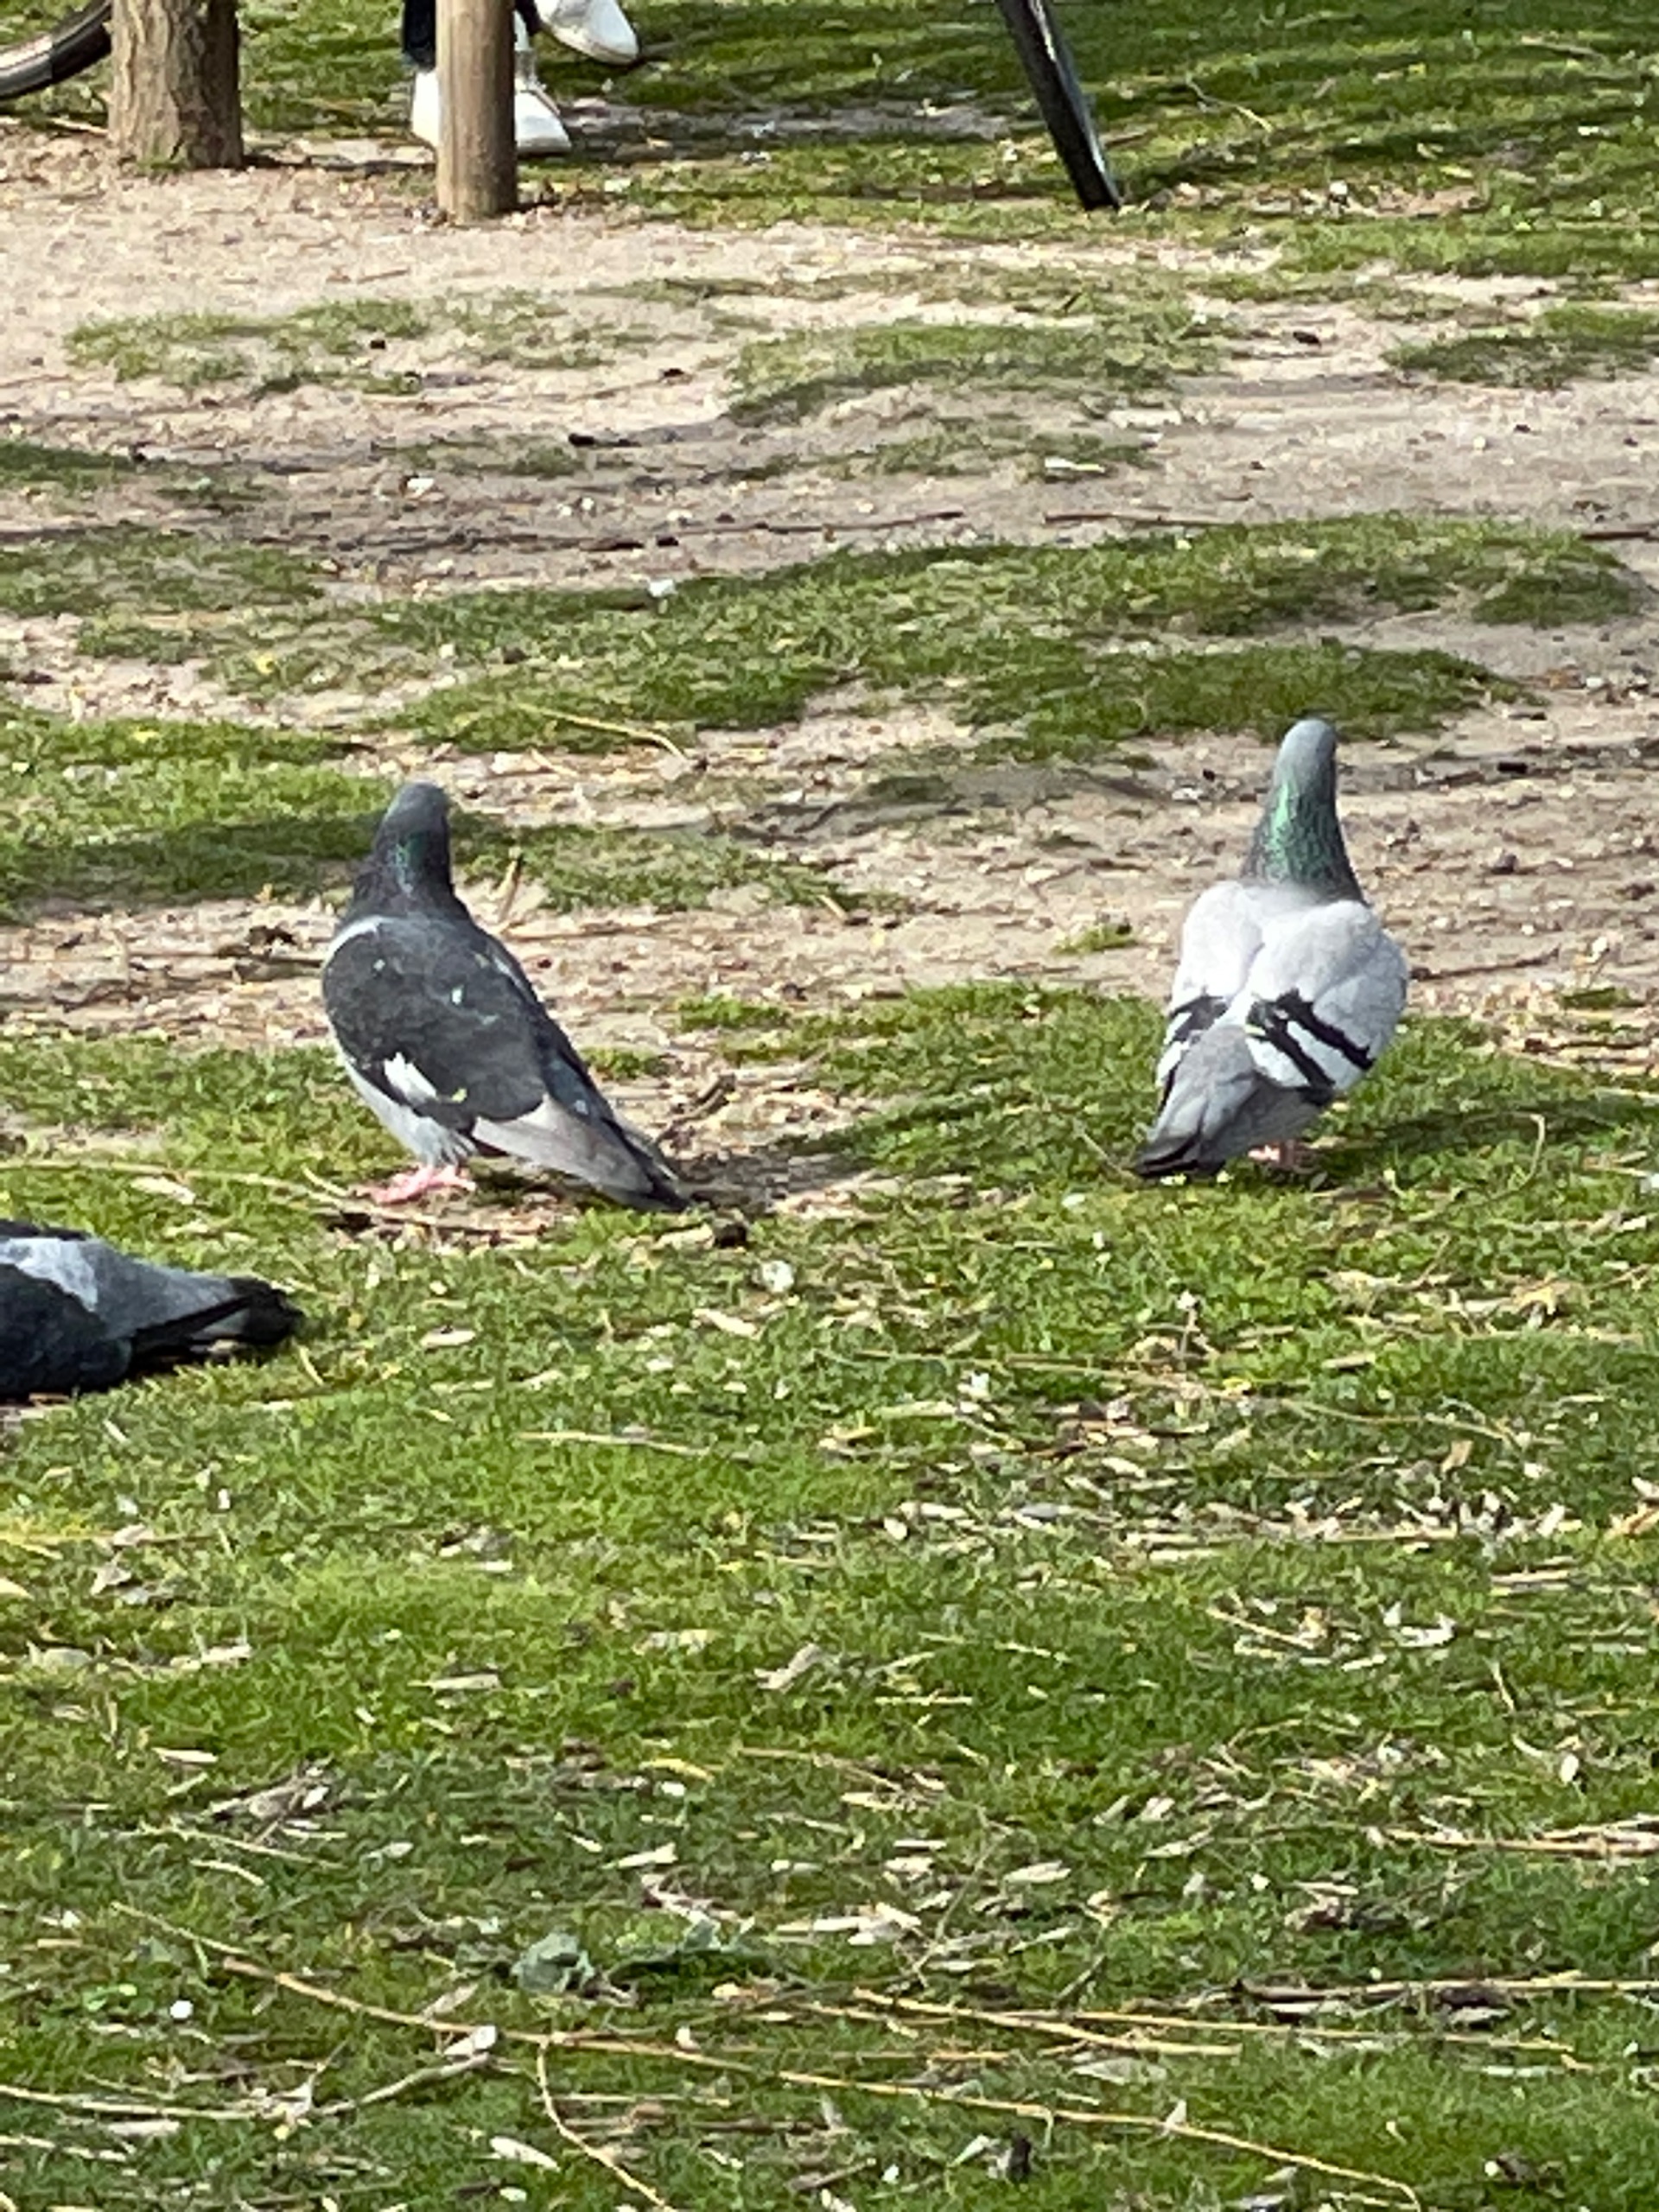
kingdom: Animalia
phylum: Chordata
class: Aves
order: Columbiformes
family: Columbidae
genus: Columba
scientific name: Columba livia
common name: Tamdue
